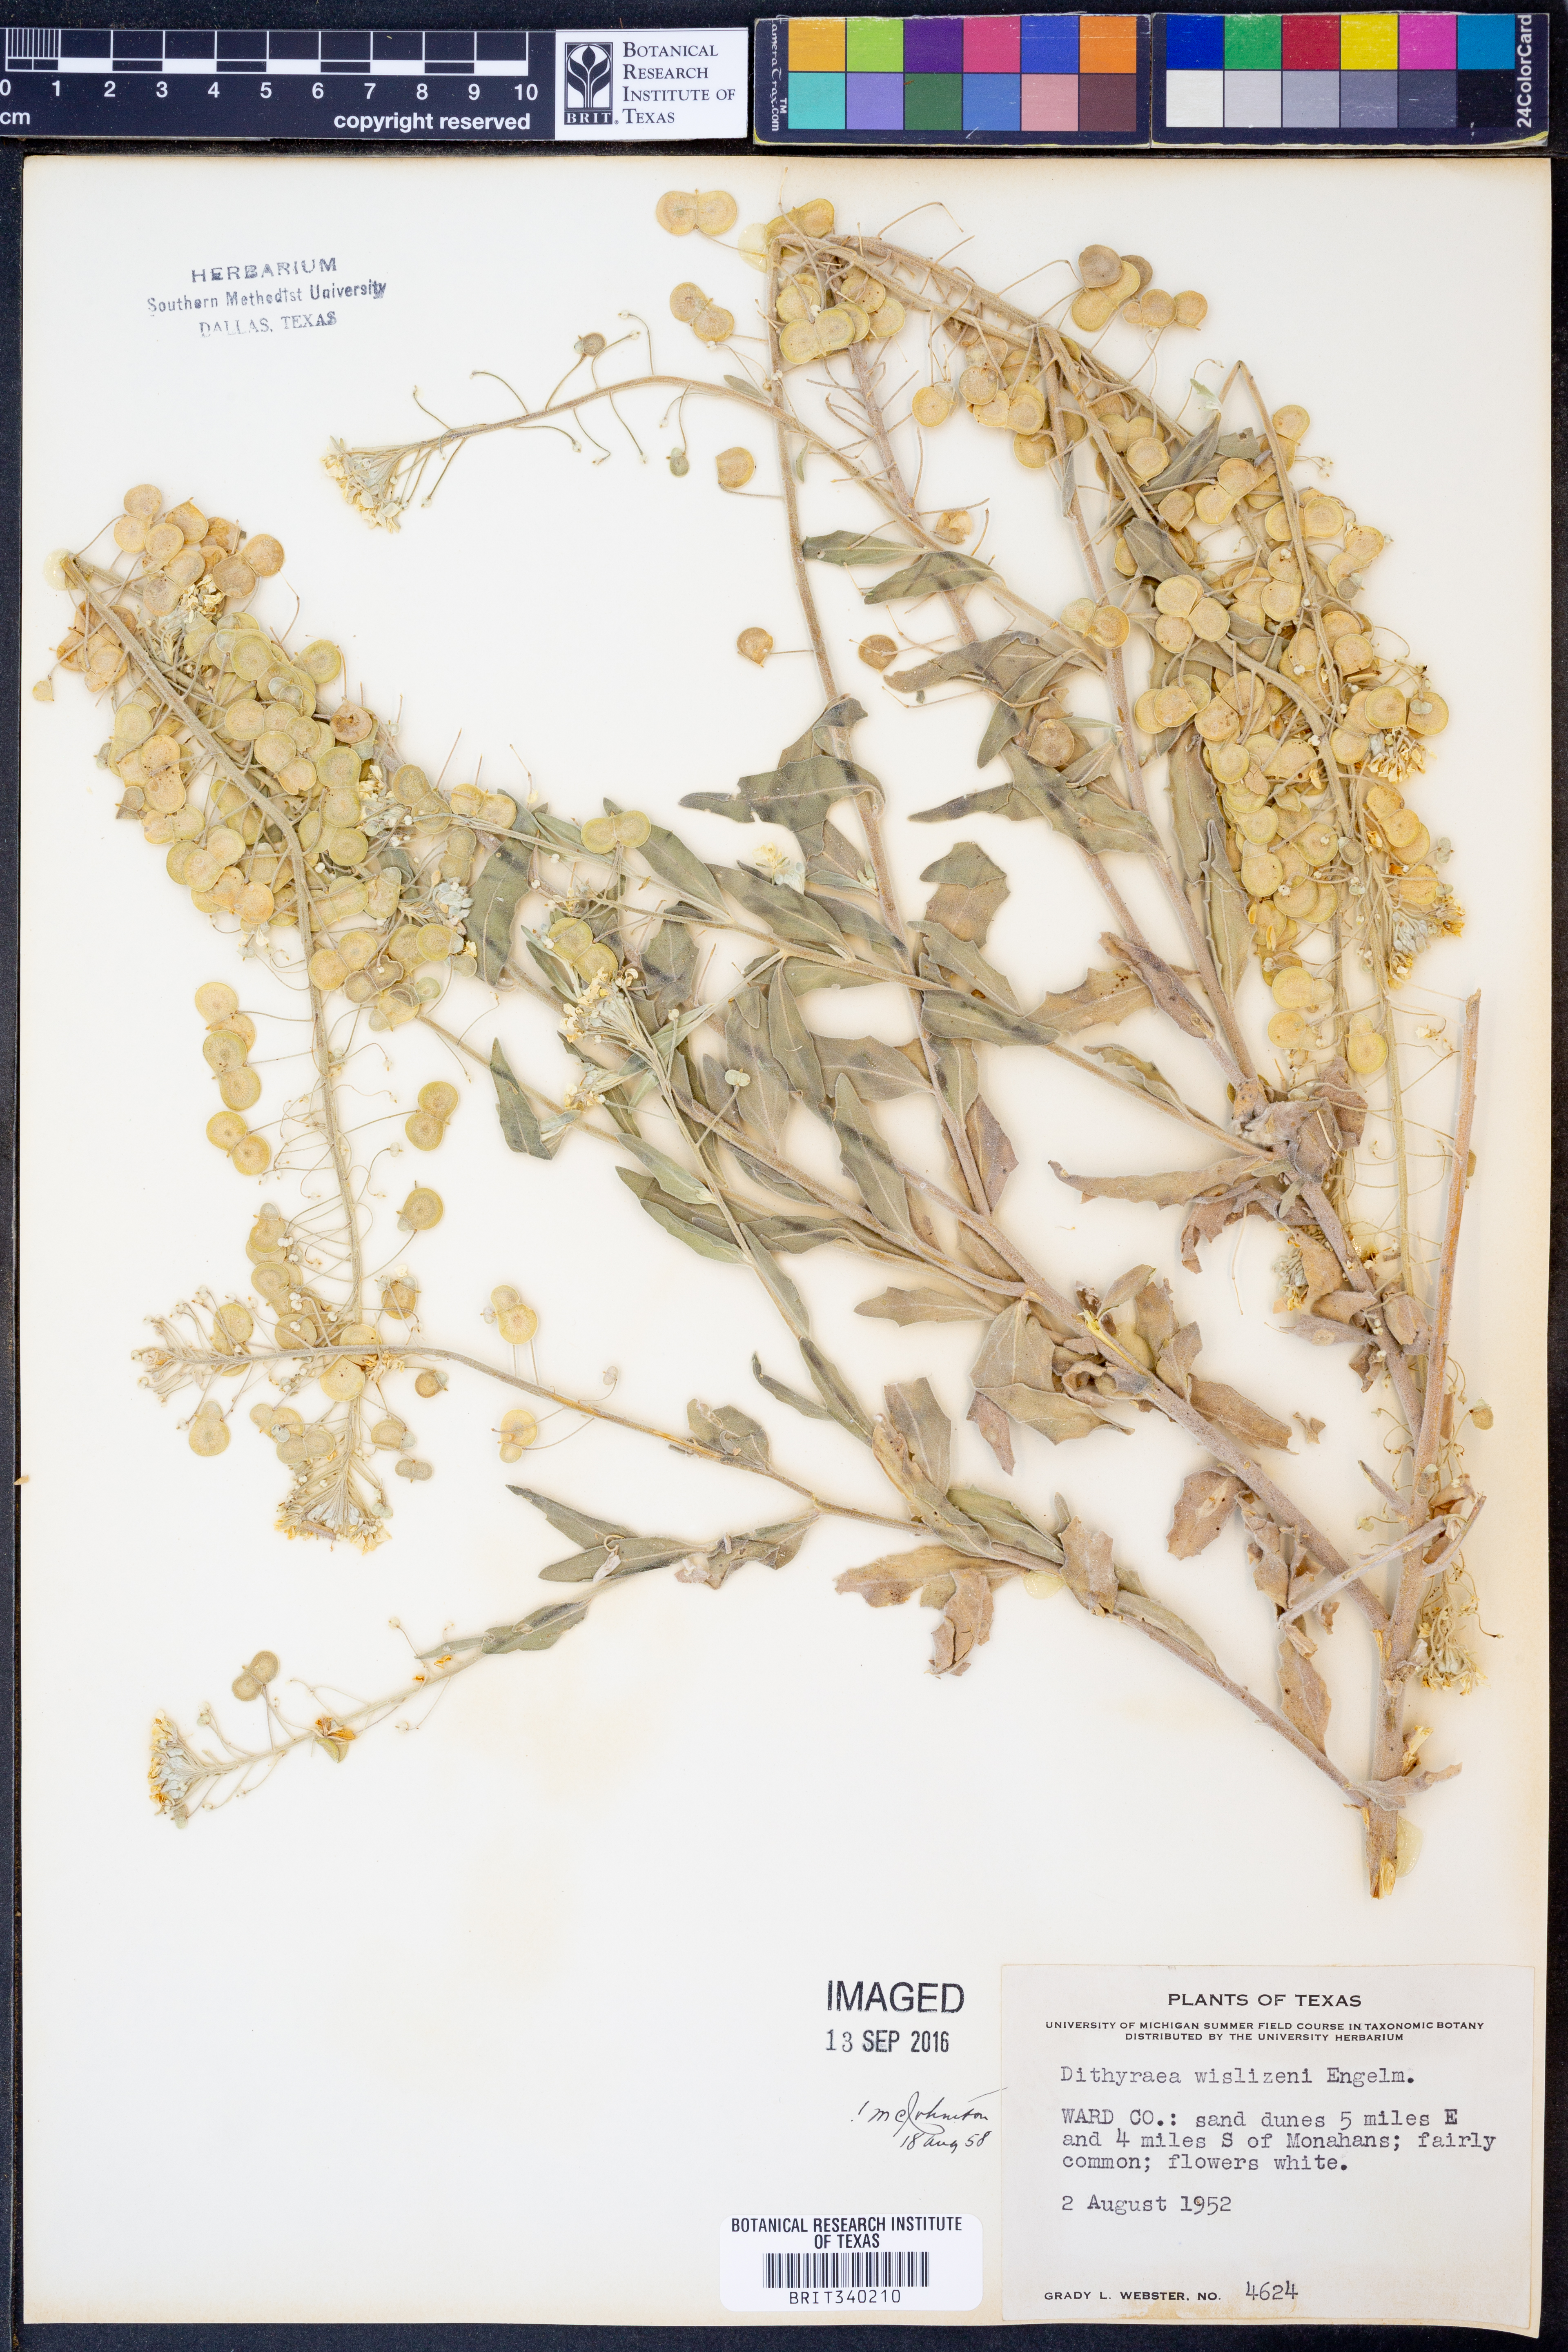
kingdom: Plantae
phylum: Tracheophyta
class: Magnoliopsida
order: Brassicales
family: Brassicaceae
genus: Dimorphocarpa
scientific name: Dimorphocarpa wislizenii
